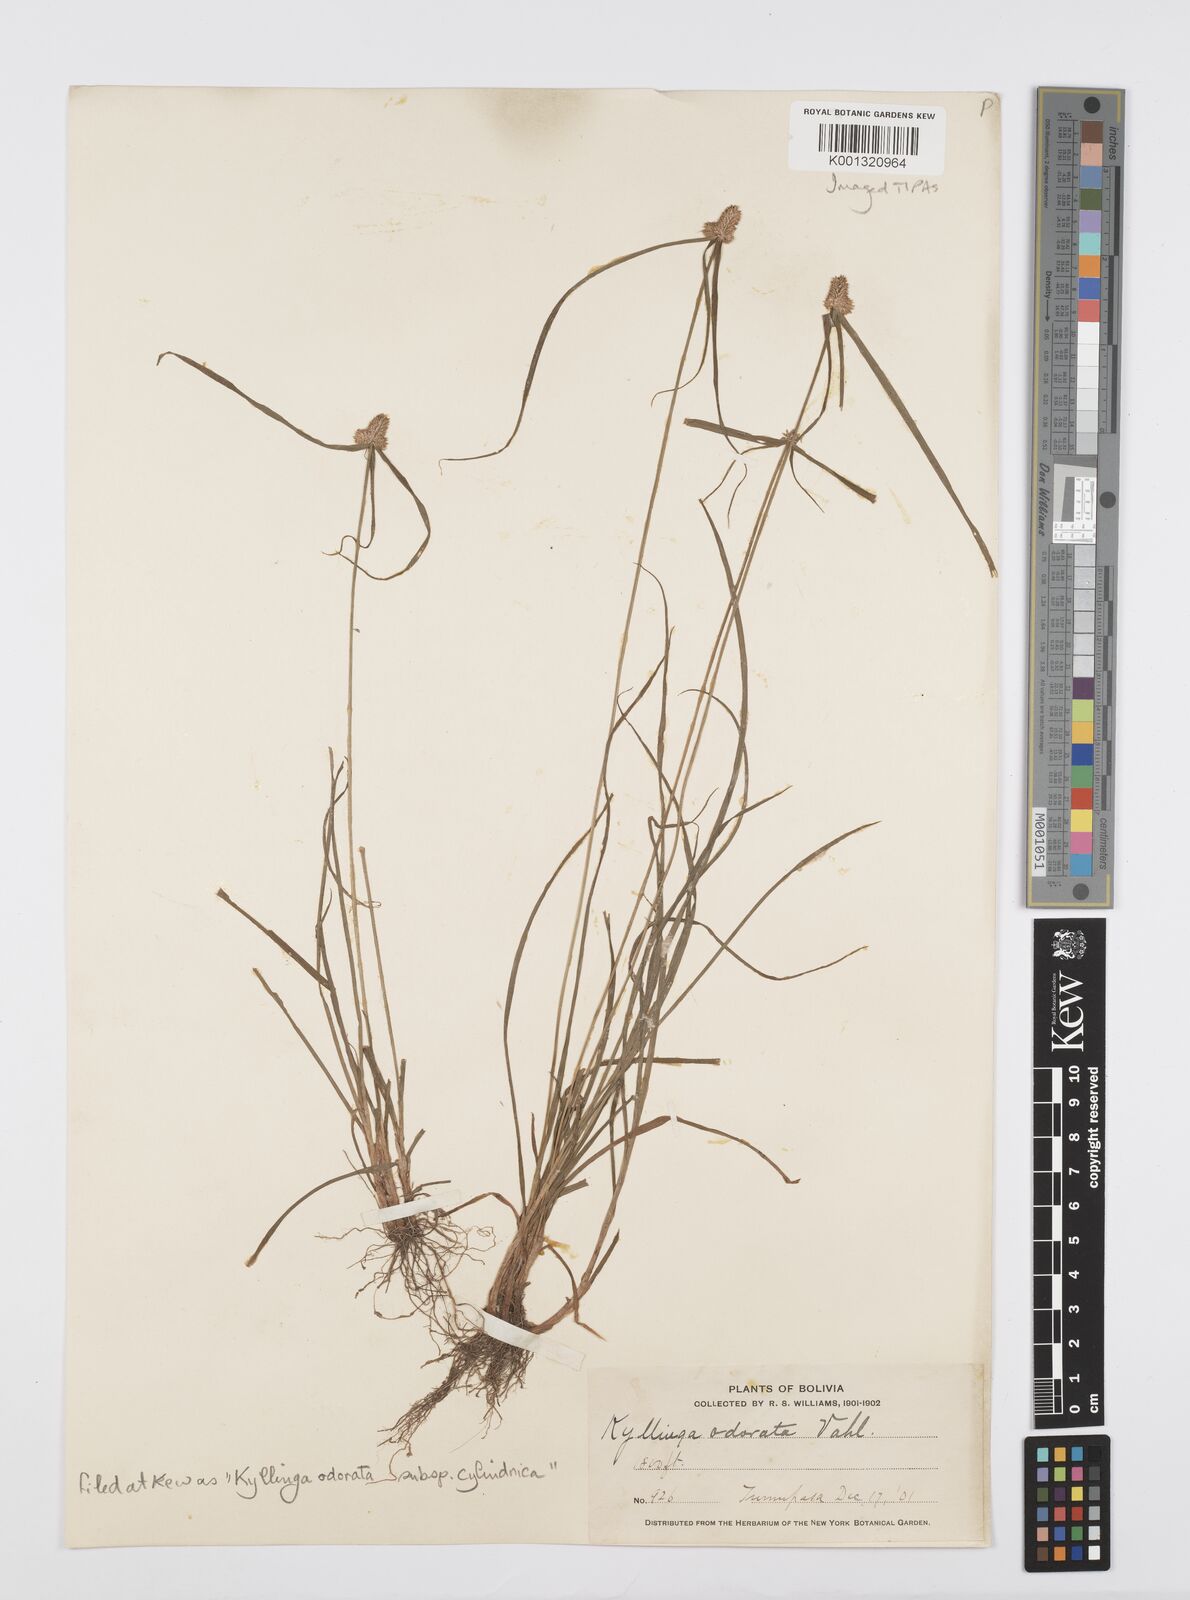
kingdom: Plantae
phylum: Tracheophyta
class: Liliopsida
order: Poales
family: Cyperaceae
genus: Cyperus
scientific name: Cyperus
